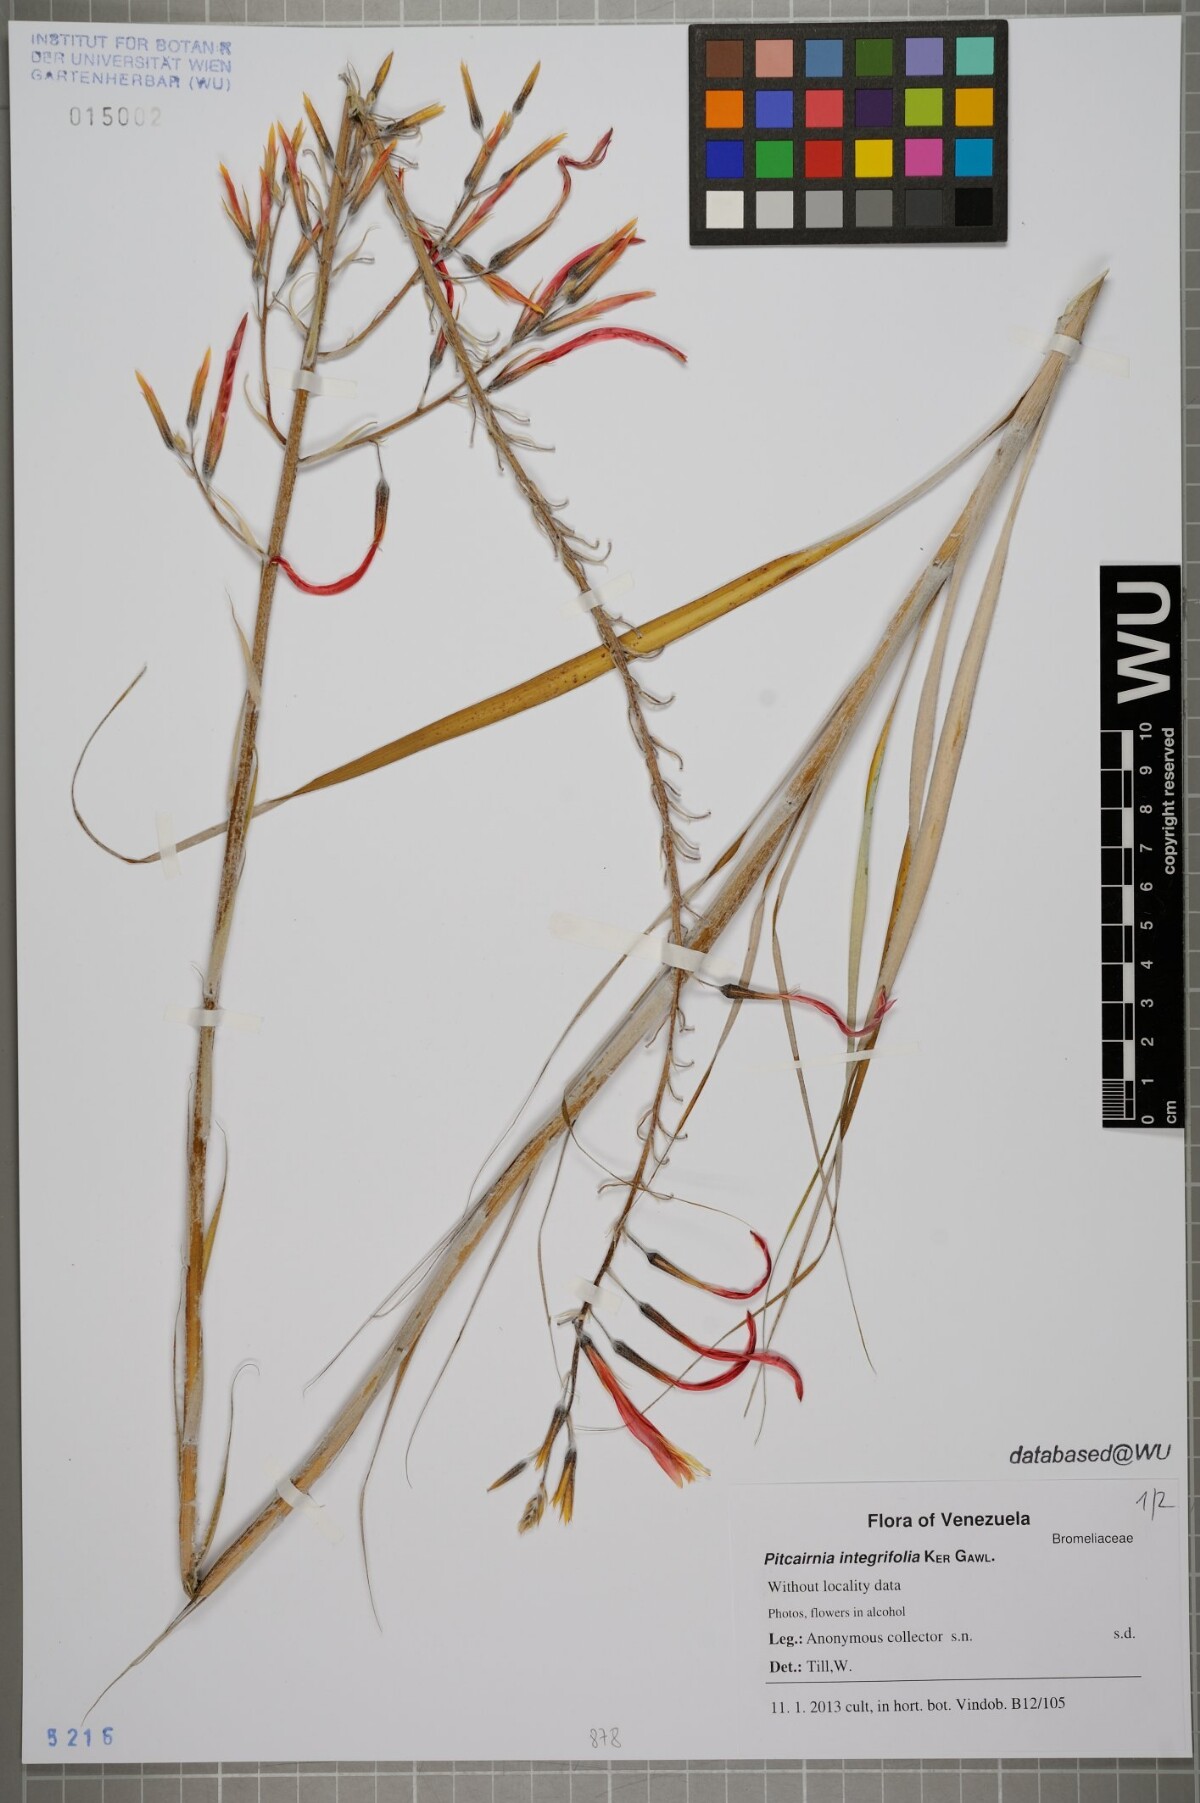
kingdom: Plantae
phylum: Tracheophyta
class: Liliopsida
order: Poales
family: Bromeliaceae
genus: Pitcairnia
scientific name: Pitcairnia integrifolia
